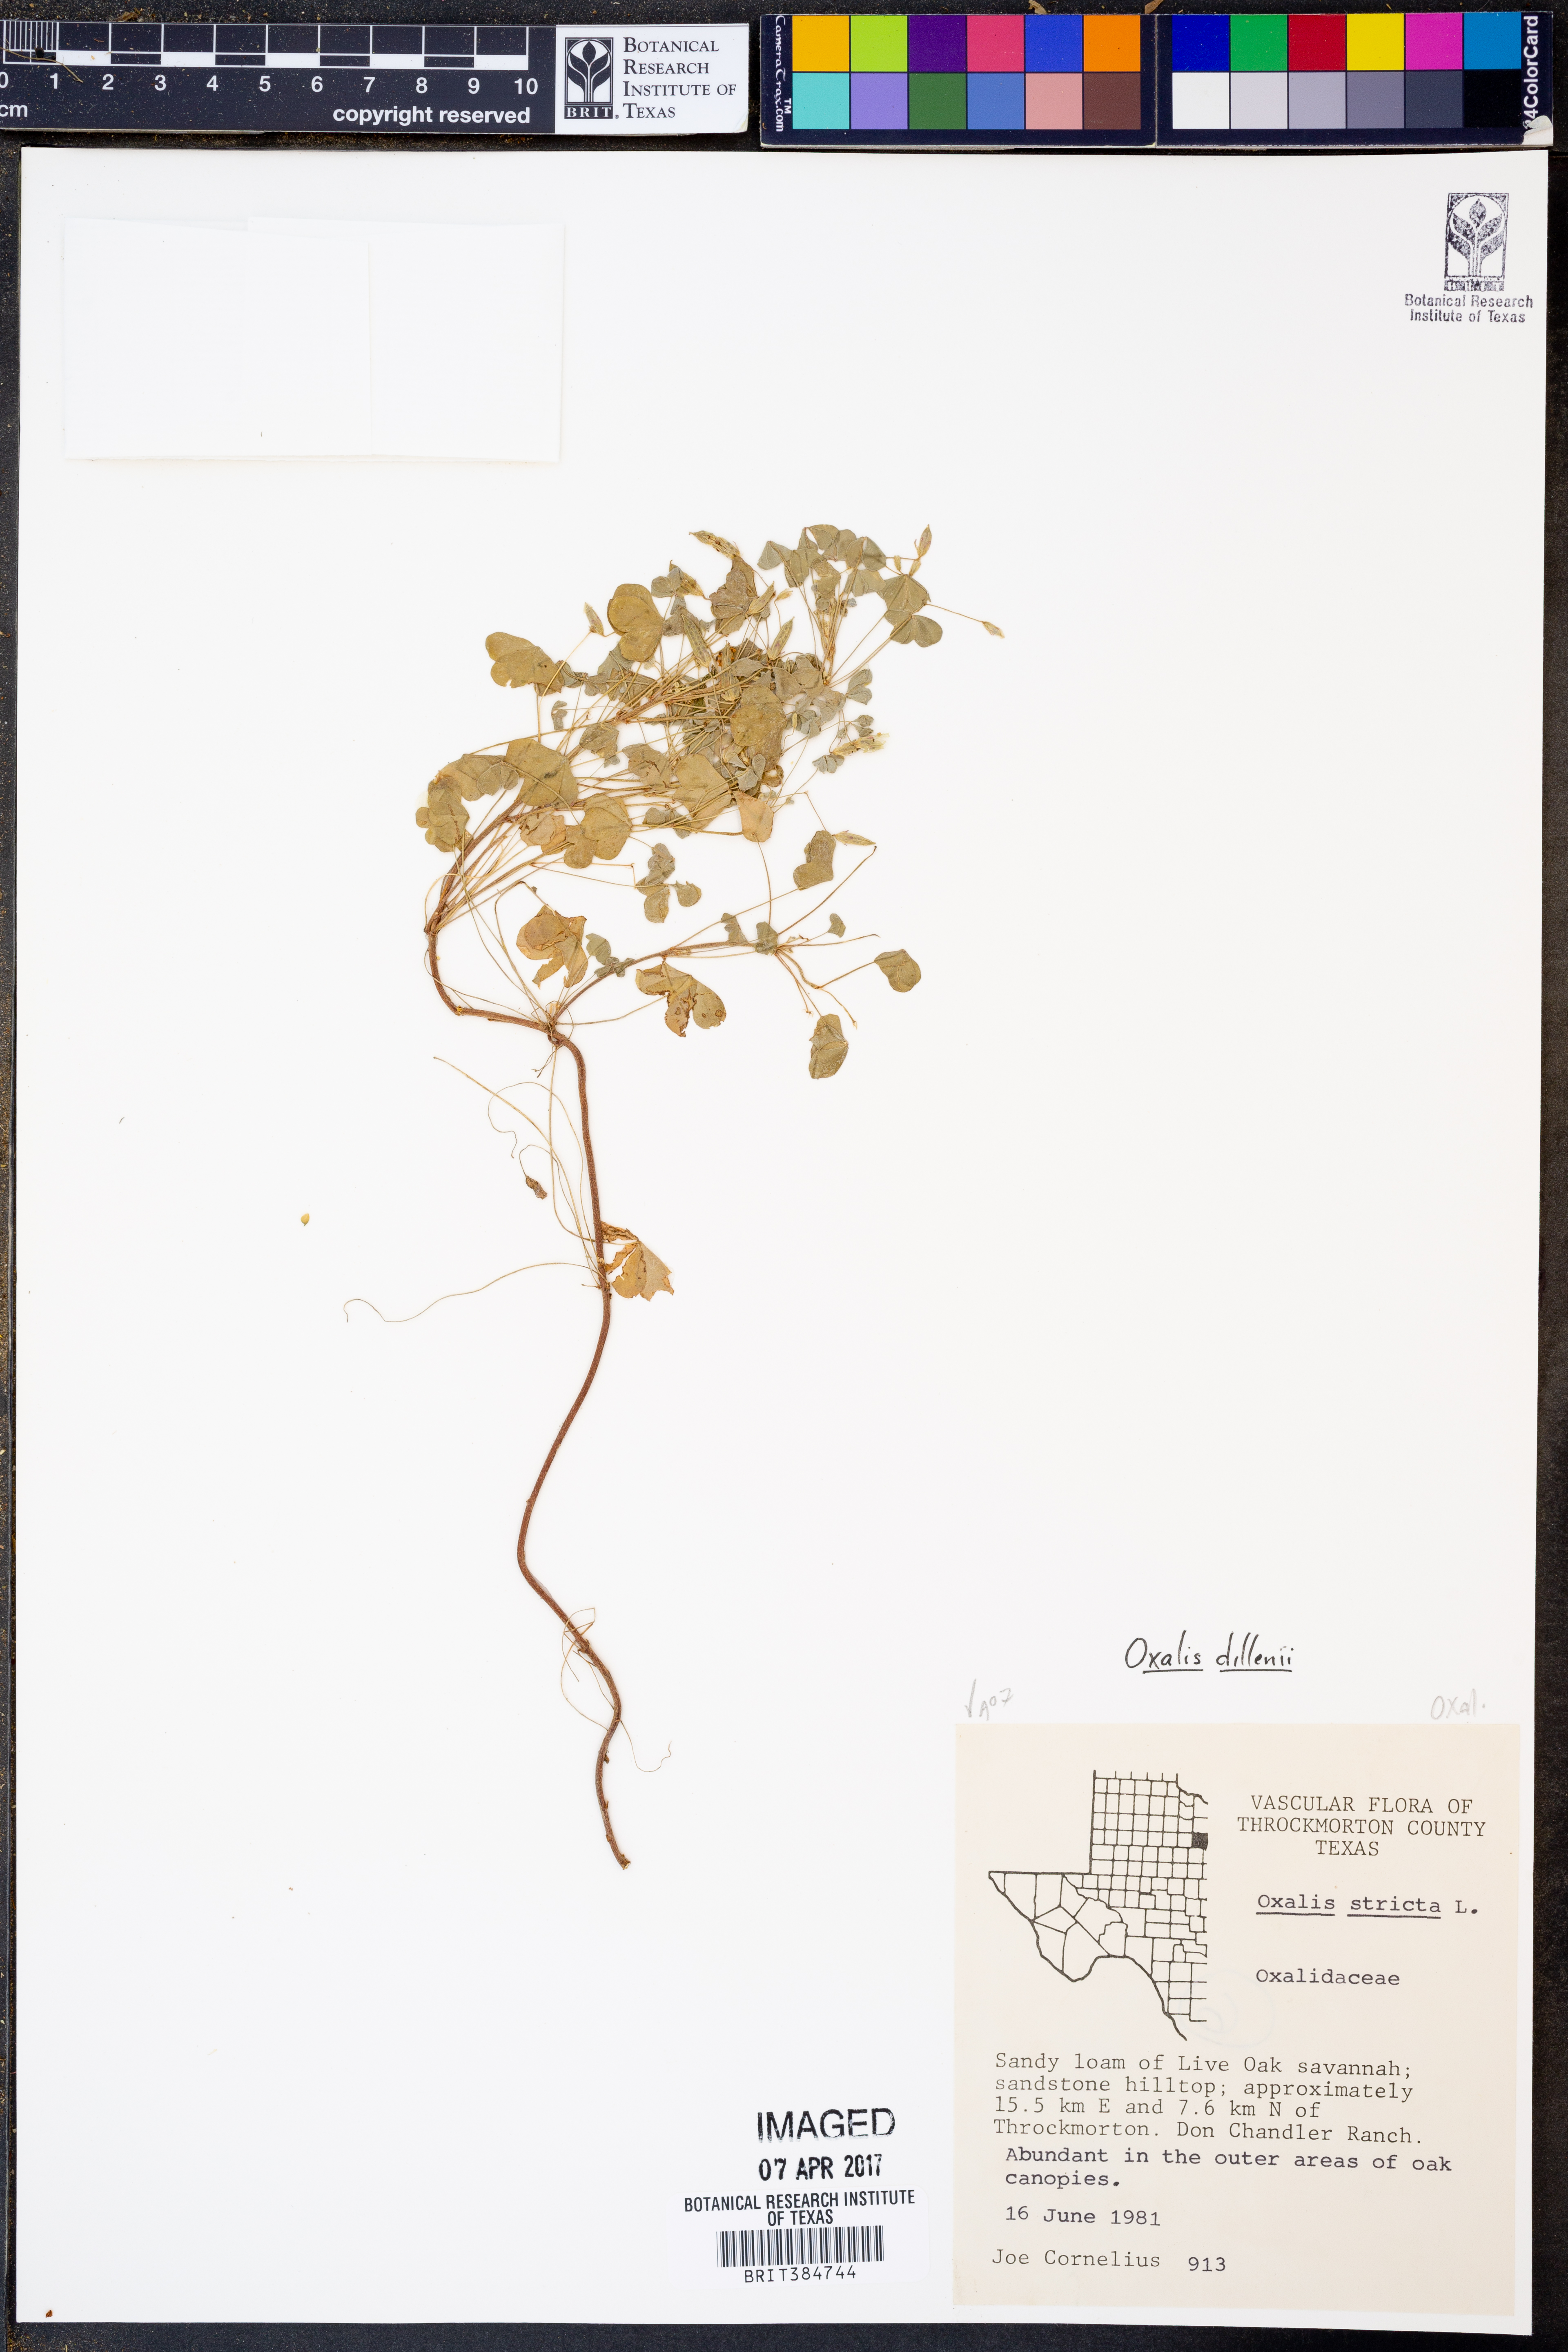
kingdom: Plantae
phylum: Tracheophyta
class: Magnoliopsida
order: Oxalidales
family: Oxalidaceae
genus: Oxalis
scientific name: Oxalis dillenii
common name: Sussex yellow-sorrel
